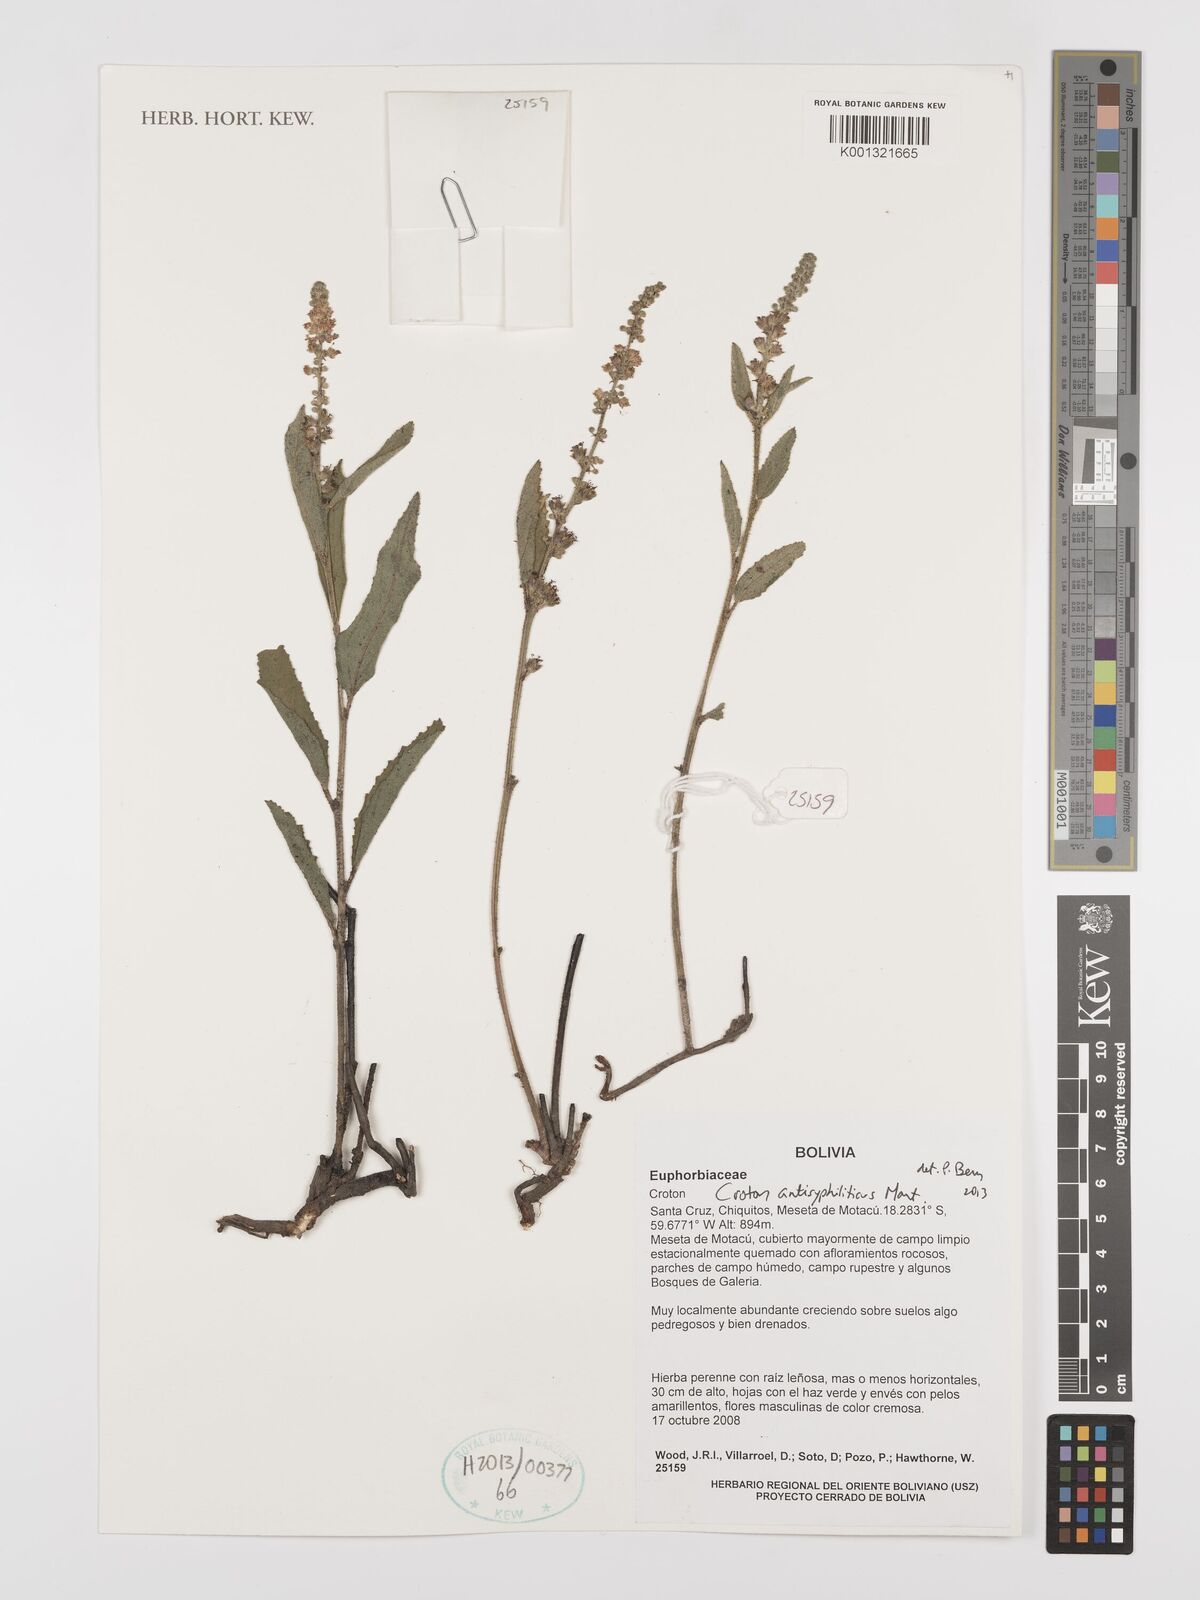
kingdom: Plantae
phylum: Tracheophyta
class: Magnoliopsida
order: Malpighiales
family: Euphorbiaceae
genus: Croton
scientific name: Croton antisyphiliticus
